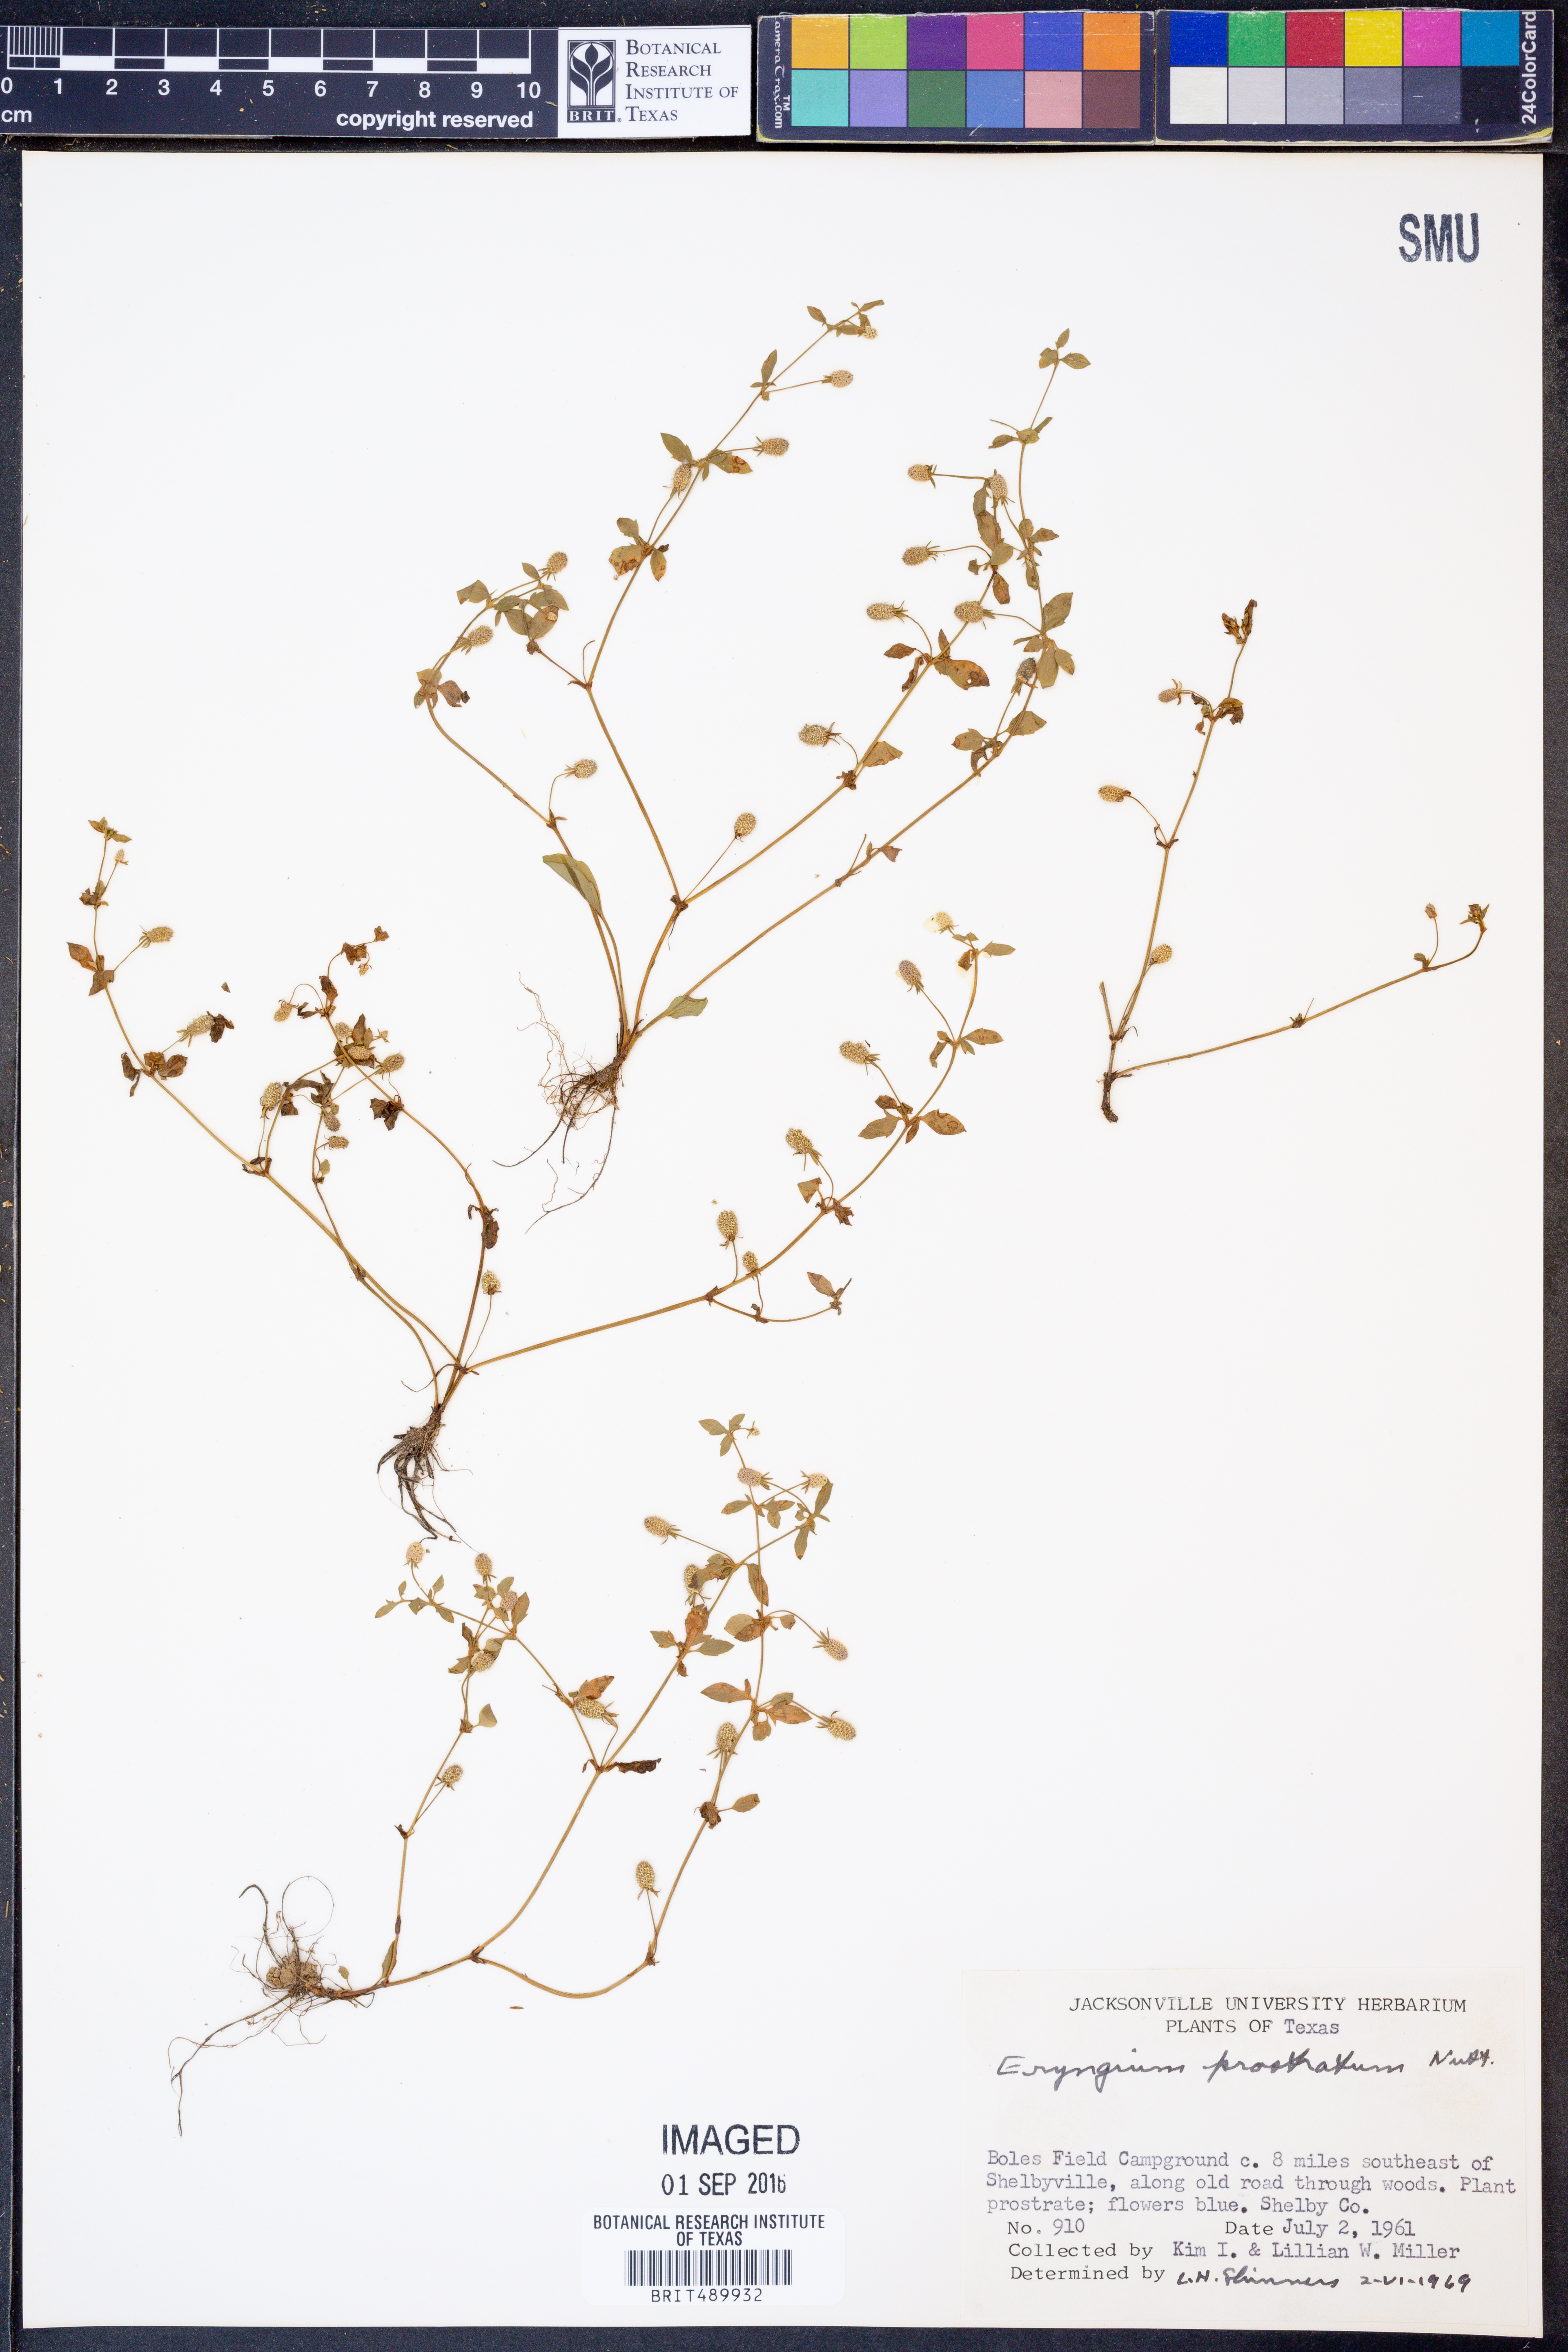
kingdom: Plantae
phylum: Tracheophyta
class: Magnoliopsida
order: Apiales
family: Apiaceae
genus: Eryngium
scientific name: Eryngium prostratum
